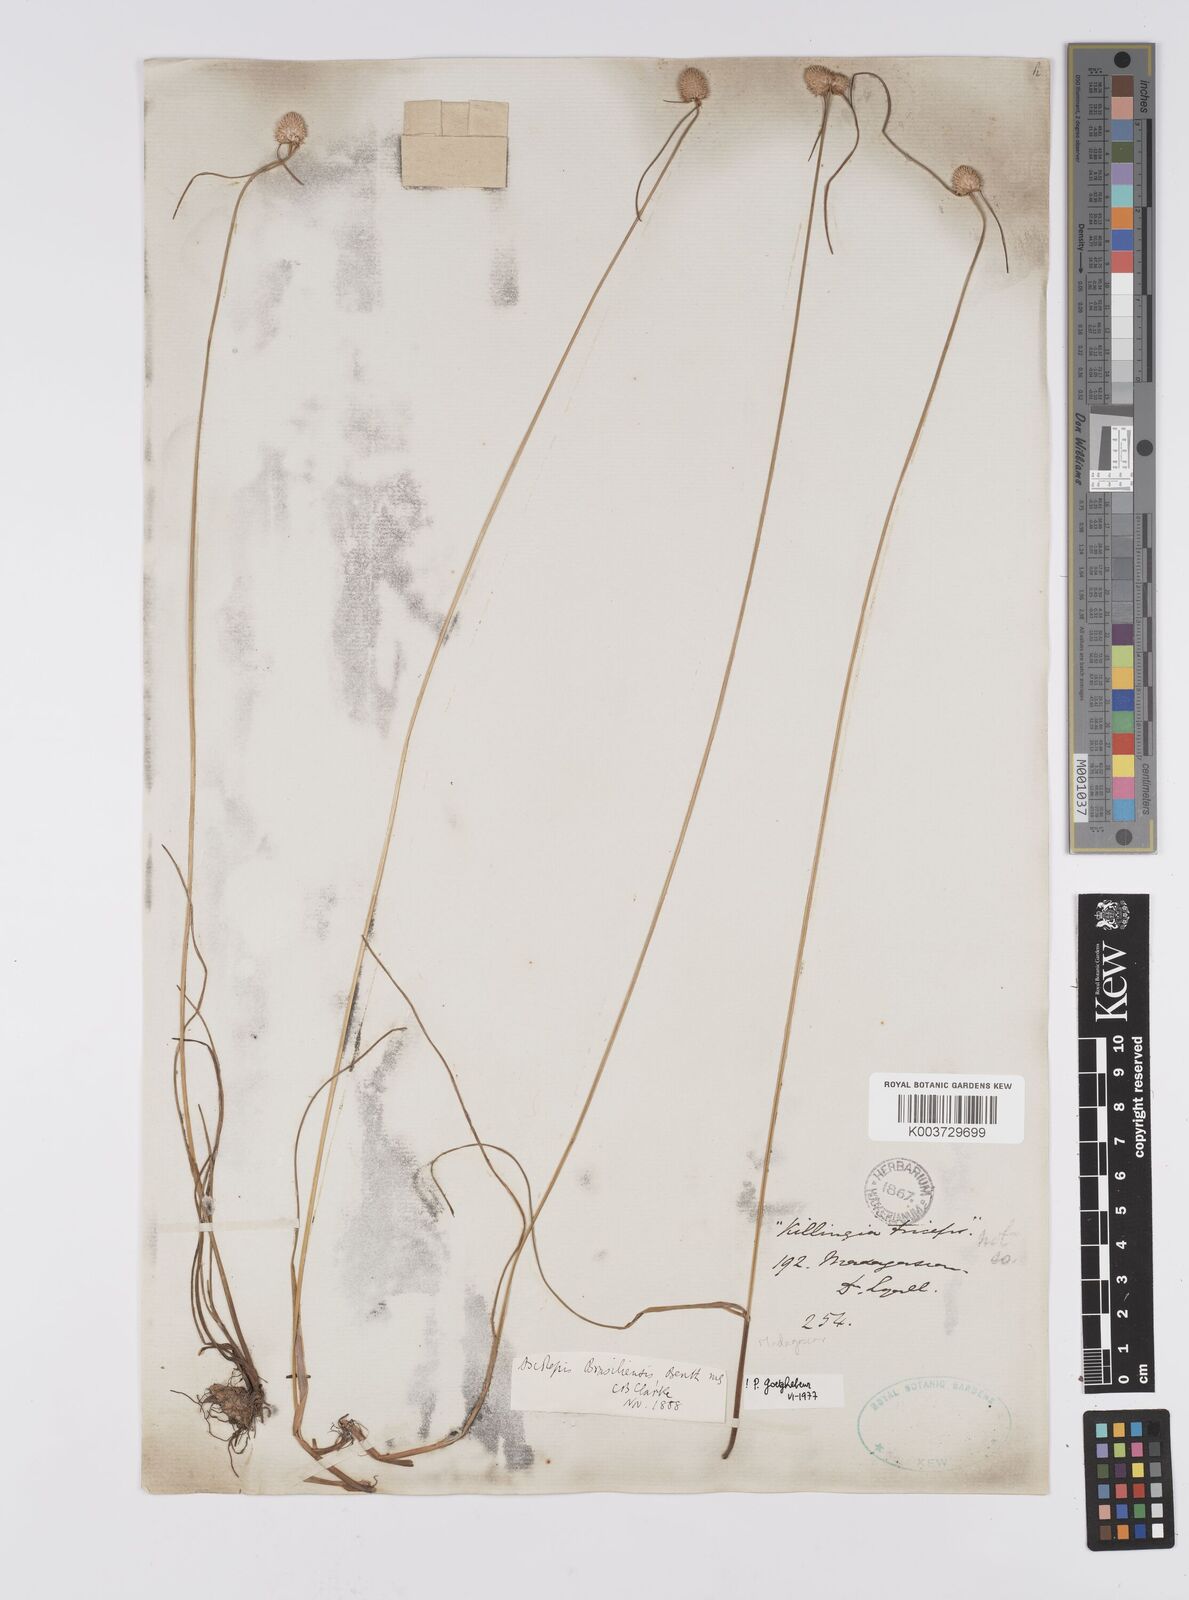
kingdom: Plantae
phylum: Tracheophyta
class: Liliopsida
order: Poales
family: Cyperaceae
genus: Cyperus
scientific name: Cyperus brasiliensis
